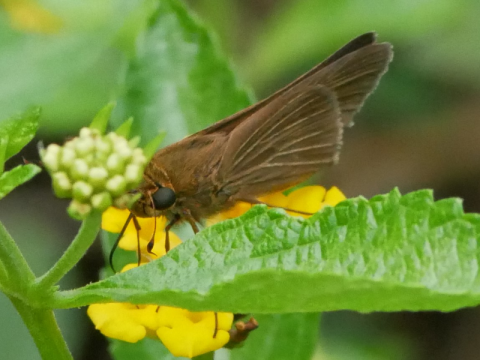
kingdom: Animalia
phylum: Arthropoda
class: Insecta
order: Lepidoptera
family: Hesperiidae
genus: Panoquina
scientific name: Panoquina ocola
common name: Ocola Skipper
